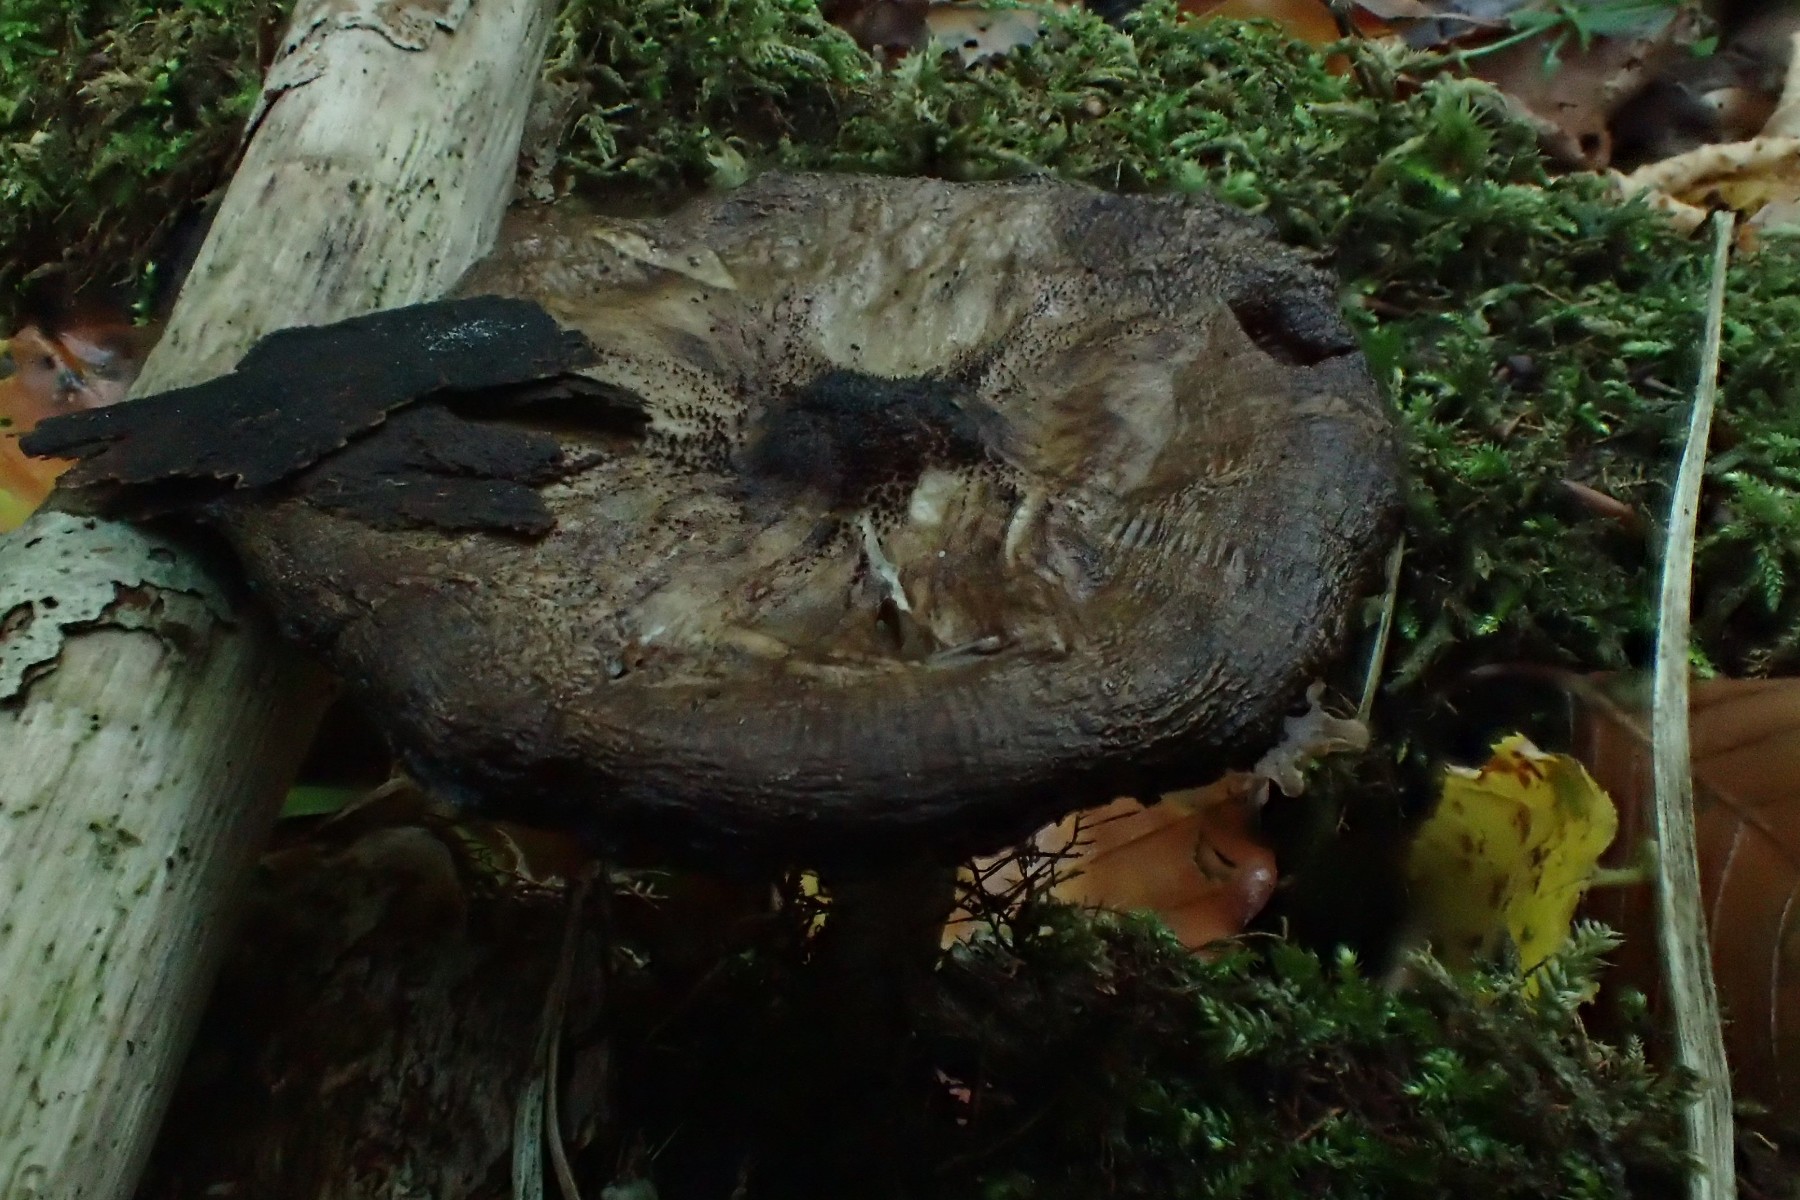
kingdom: Fungi
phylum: Basidiomycota
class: Agaricomycetes
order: Agaricales
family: Pluteaceae
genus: Pluteus
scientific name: Pluteus umbrosus
